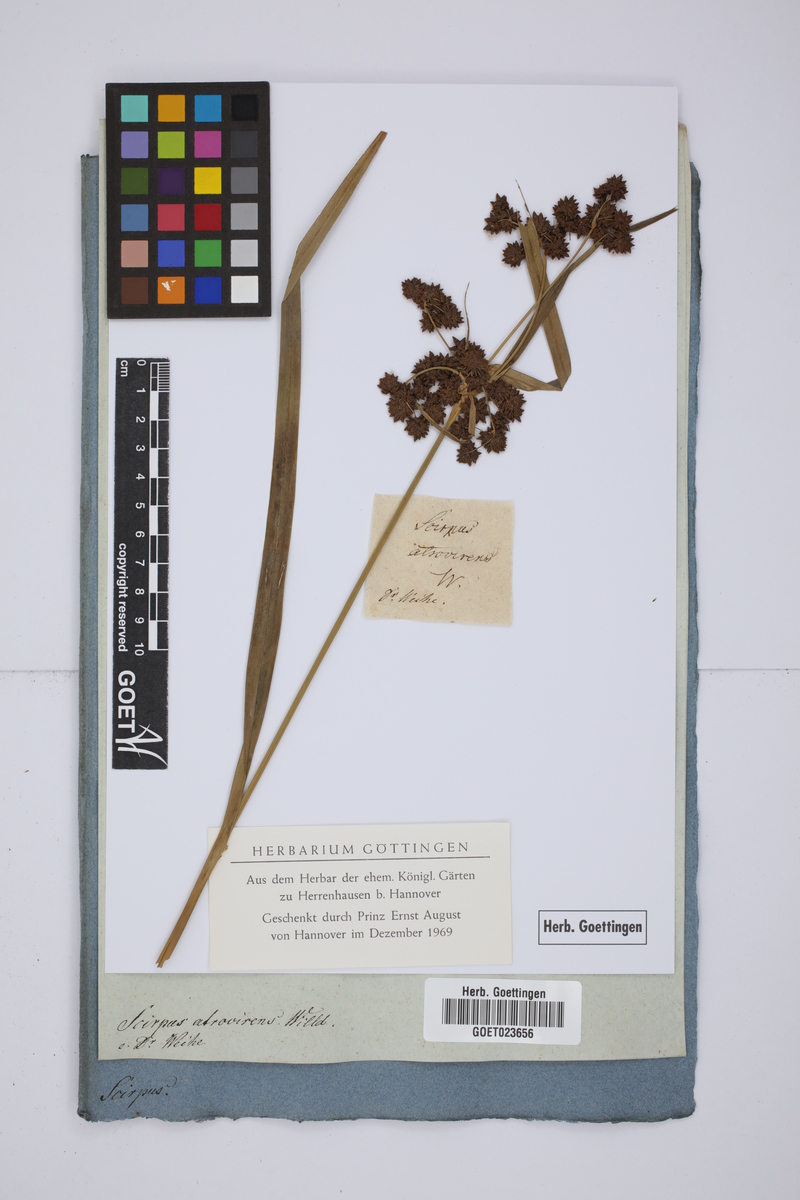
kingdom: Plantae
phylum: Tracheophyta
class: Liliopsida
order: Poales
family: Cyperaceae
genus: Scirpus
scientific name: Scirpus atrovirens
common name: Black bulrush
